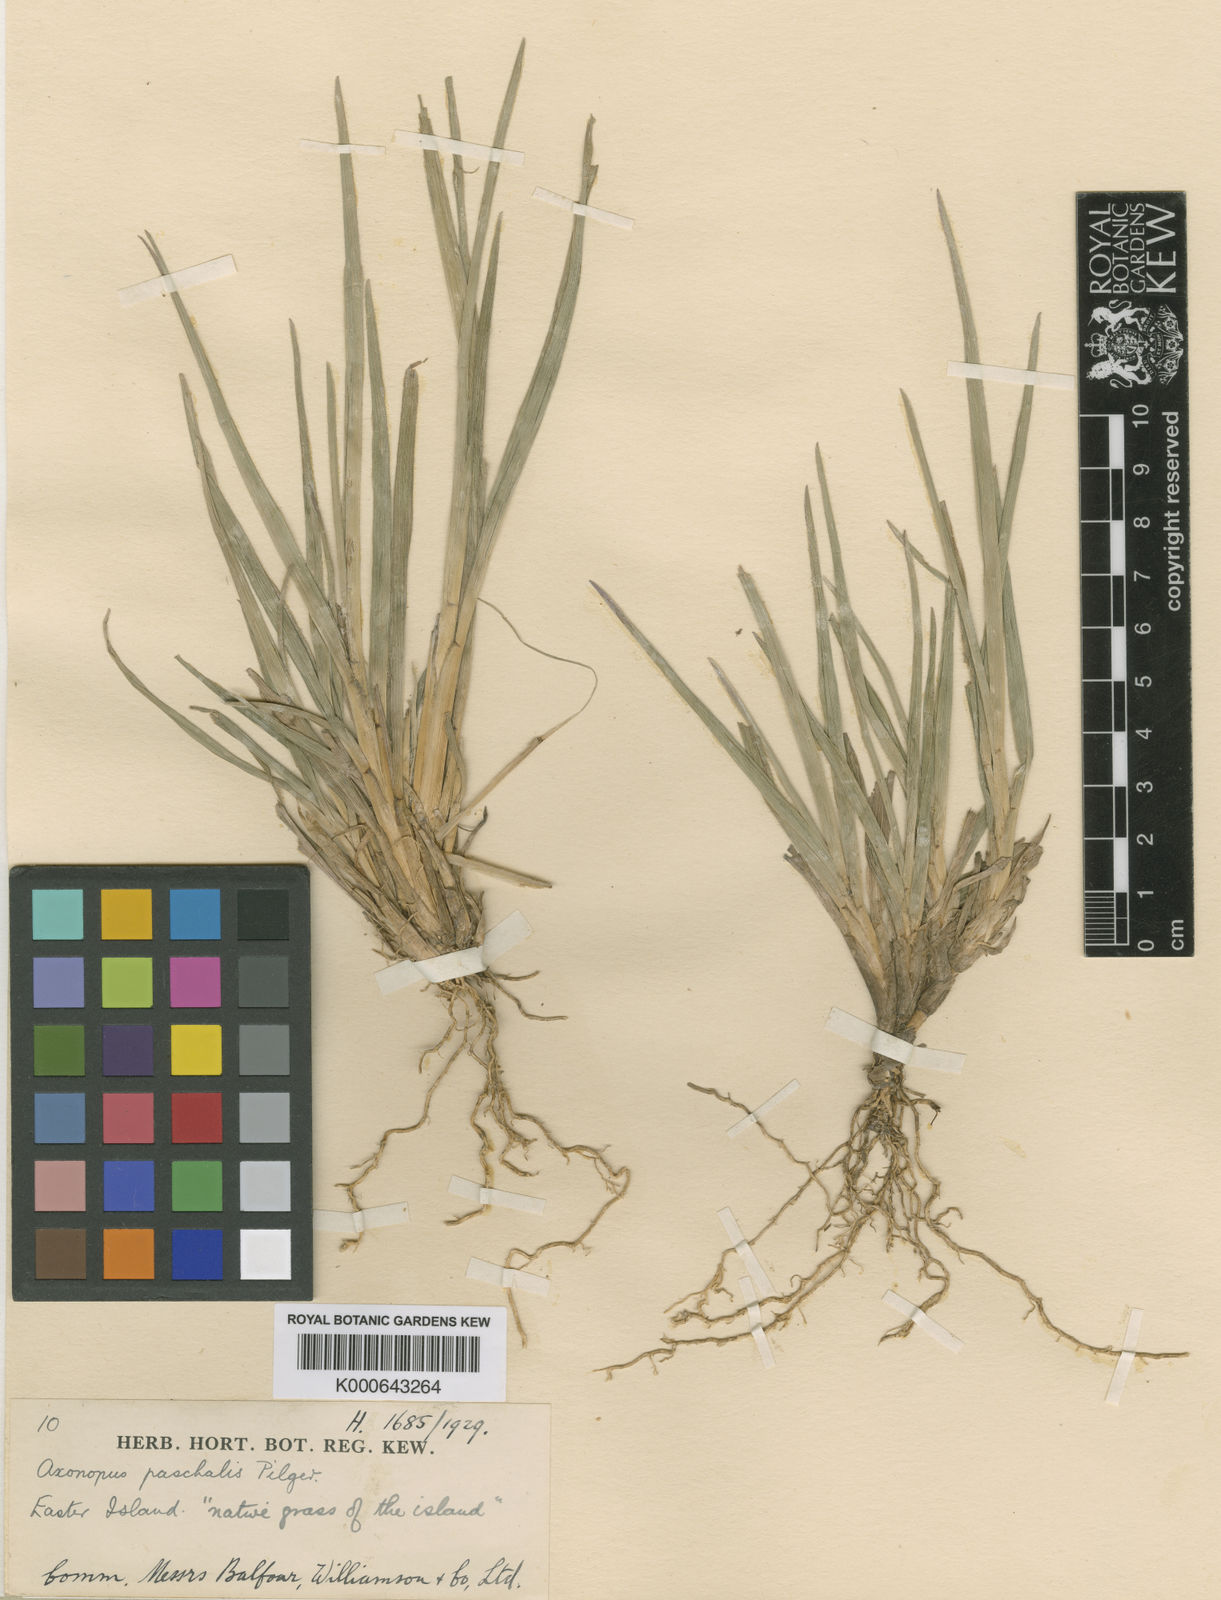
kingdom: Plantae
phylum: Tracheophyta
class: Liliopsida
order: Poales
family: Poaceae
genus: Axonopus
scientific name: Axonopus paschalis
